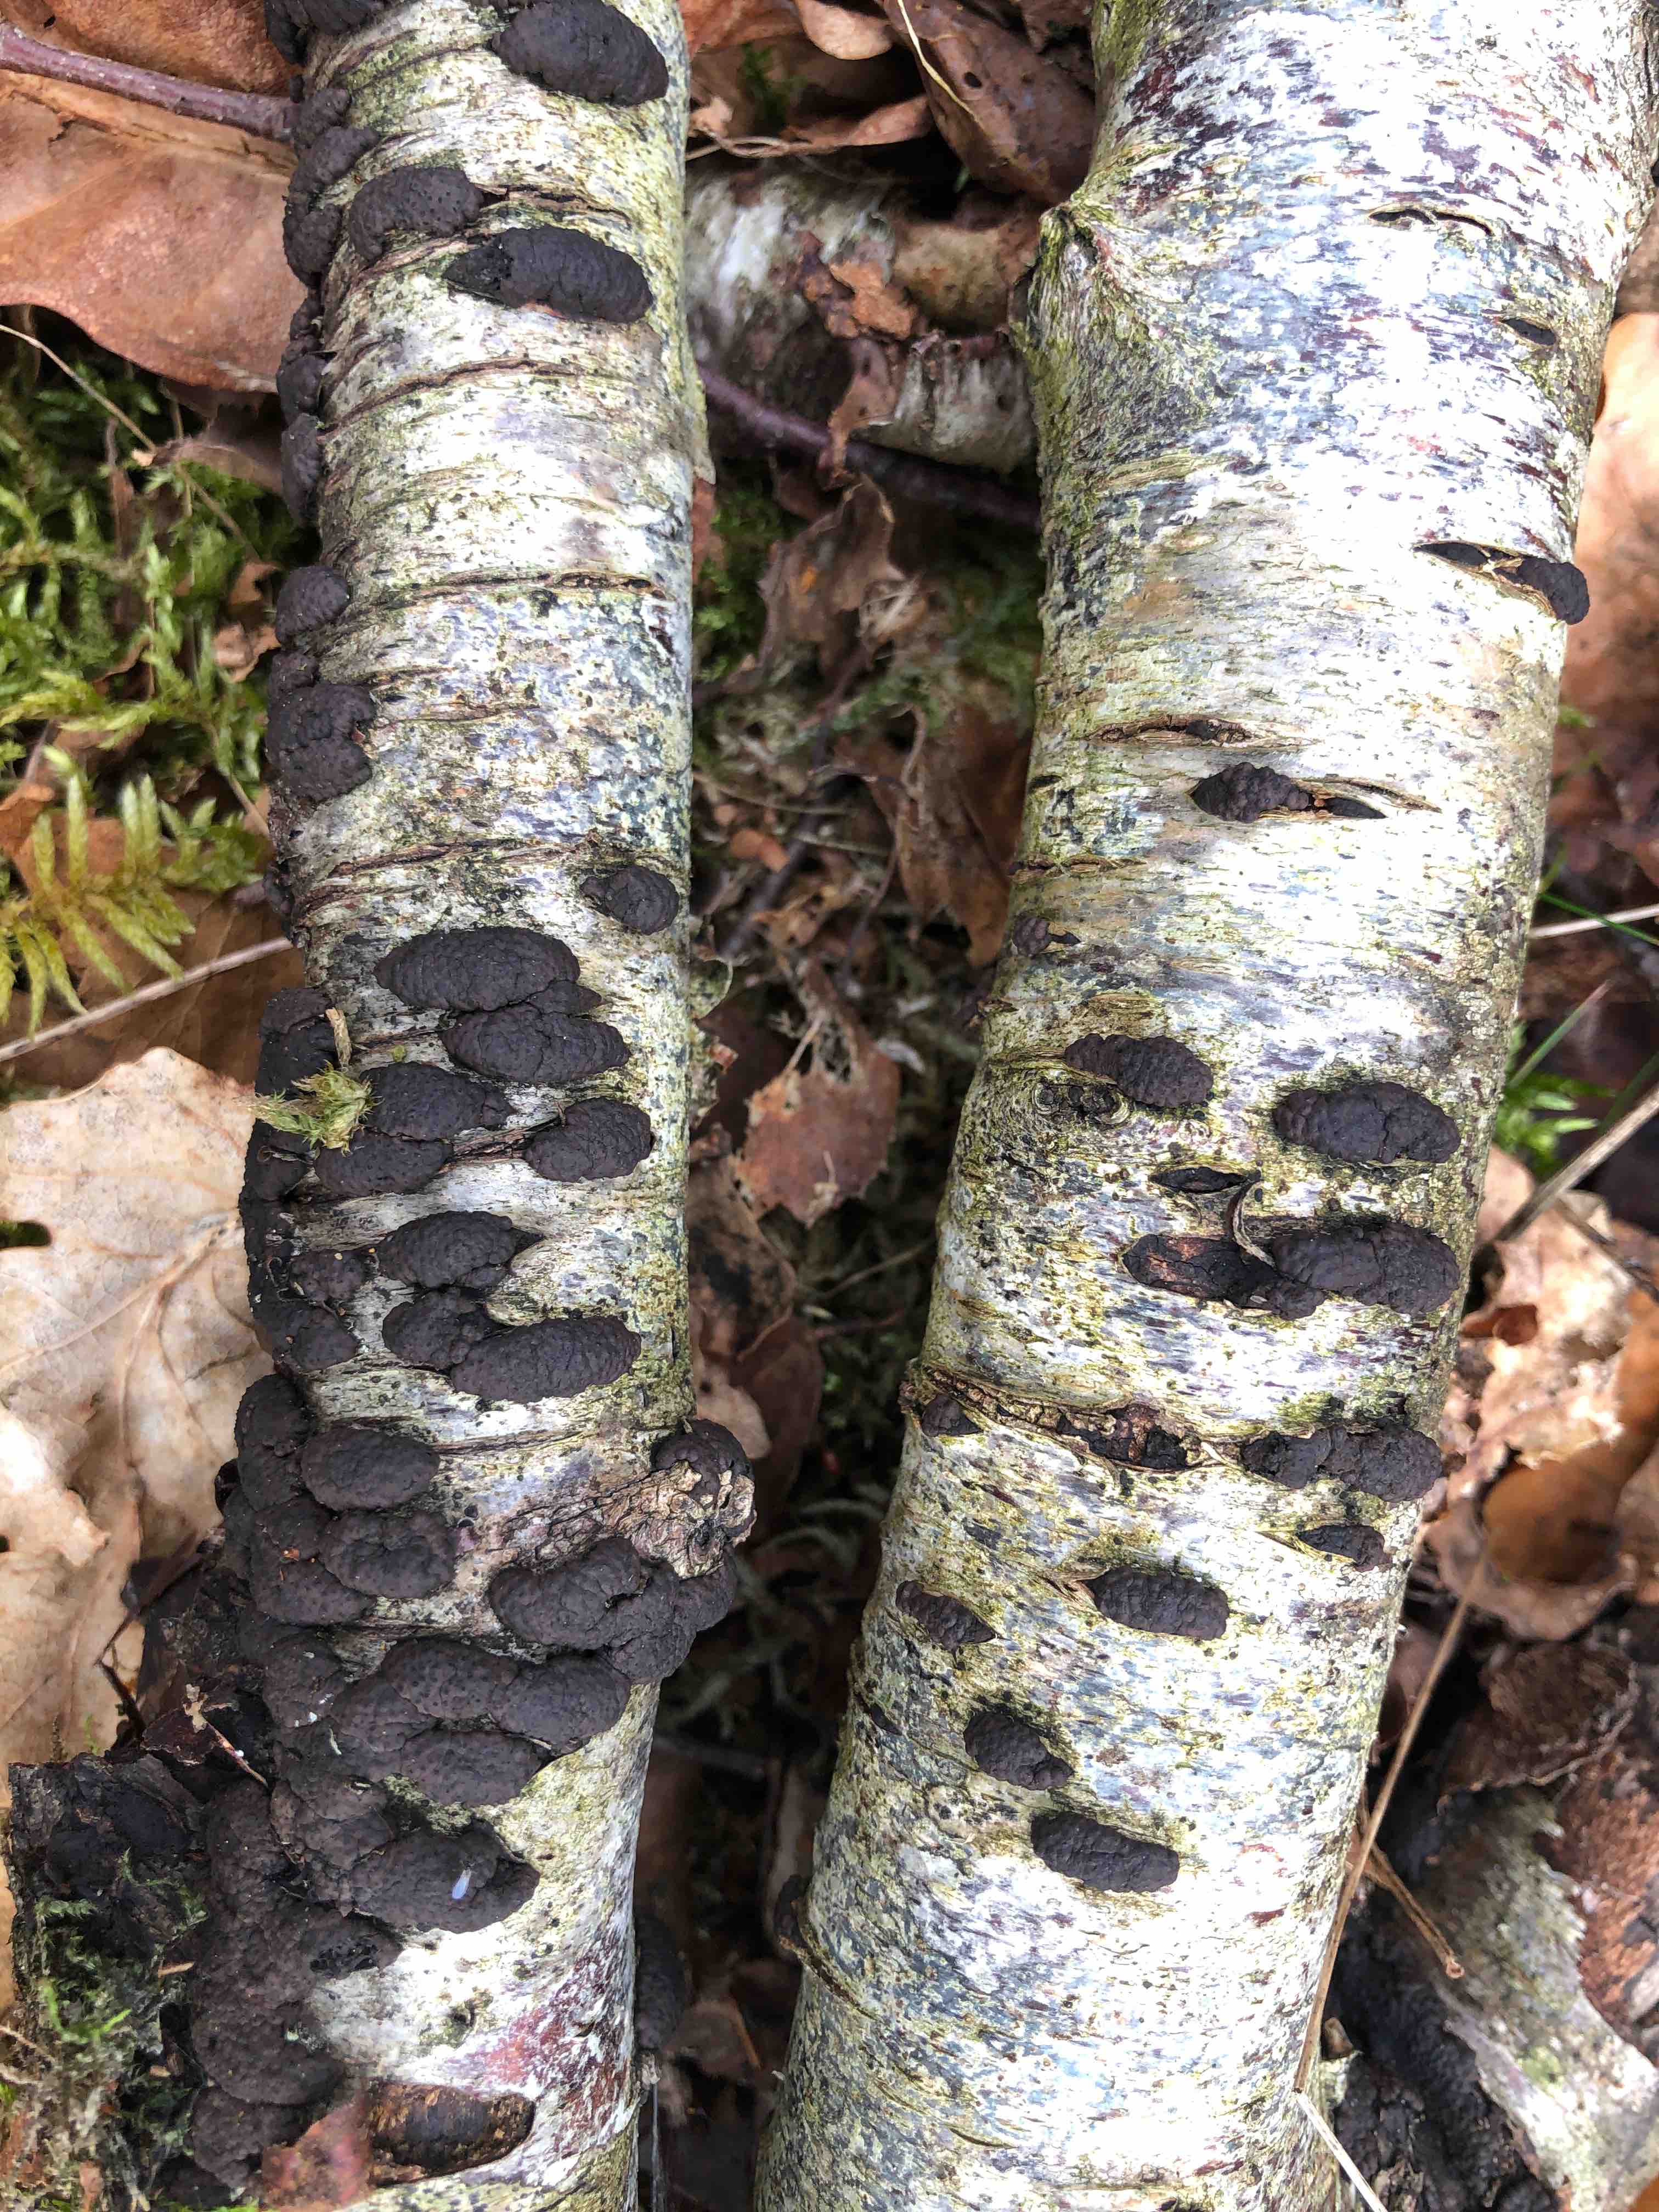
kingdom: Fungi
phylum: Ascomycota
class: Sordariomycetes
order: Xylariales
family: Hypoxylaceae
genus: Jackrogersella
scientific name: Jackrogersella multiformis
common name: foranderlig kulbær
